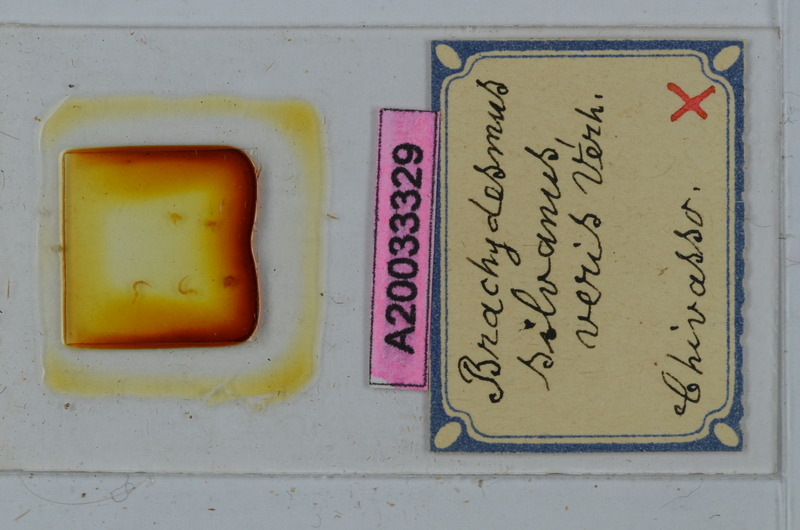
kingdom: Animalia
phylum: Arthropoda
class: Diplopoda
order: Polydesmida
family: Polydesmidae
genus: Brachydesmus
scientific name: Brachydesmus silvanus
